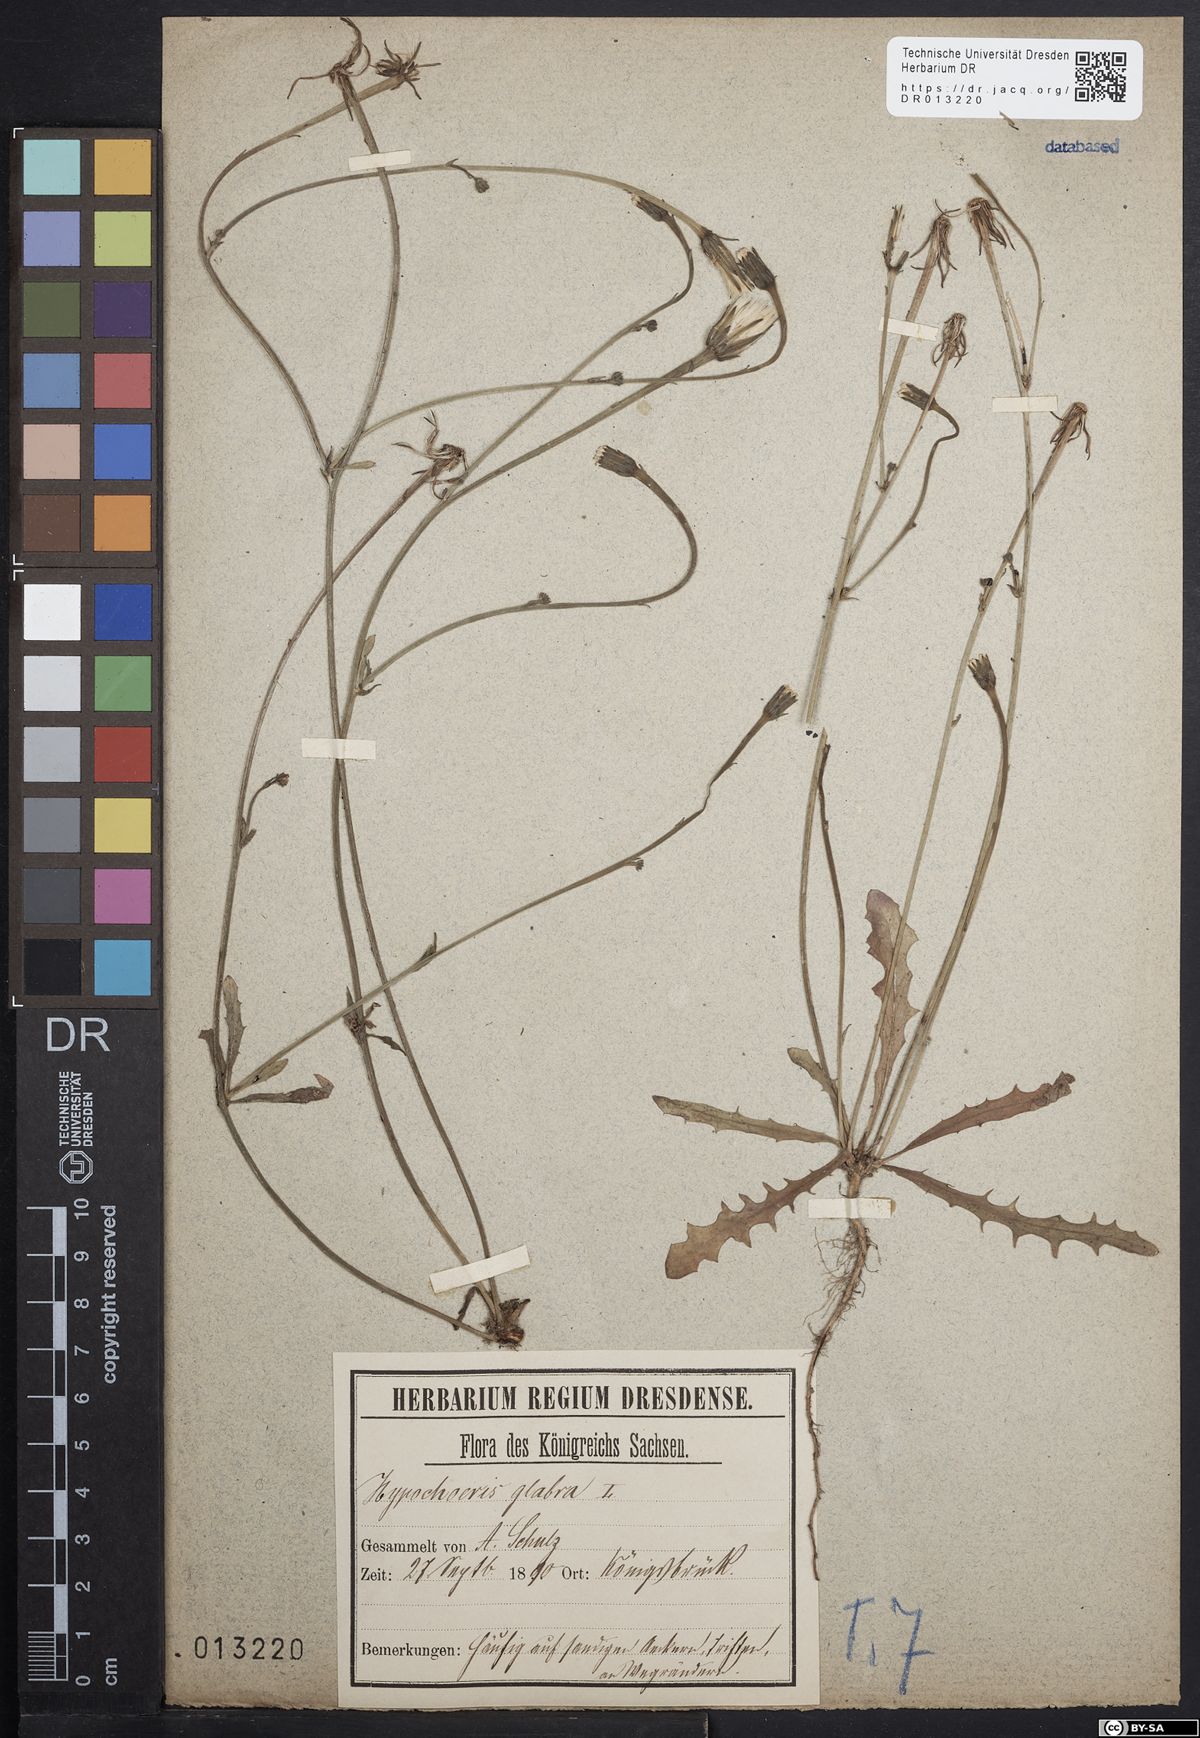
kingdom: Plantae
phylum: Tracheophyta
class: Magnoliopsida
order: Asterales
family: Asteraceae
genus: Hypochaeris
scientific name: Hypochaeris glabra
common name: Smooth catsear
